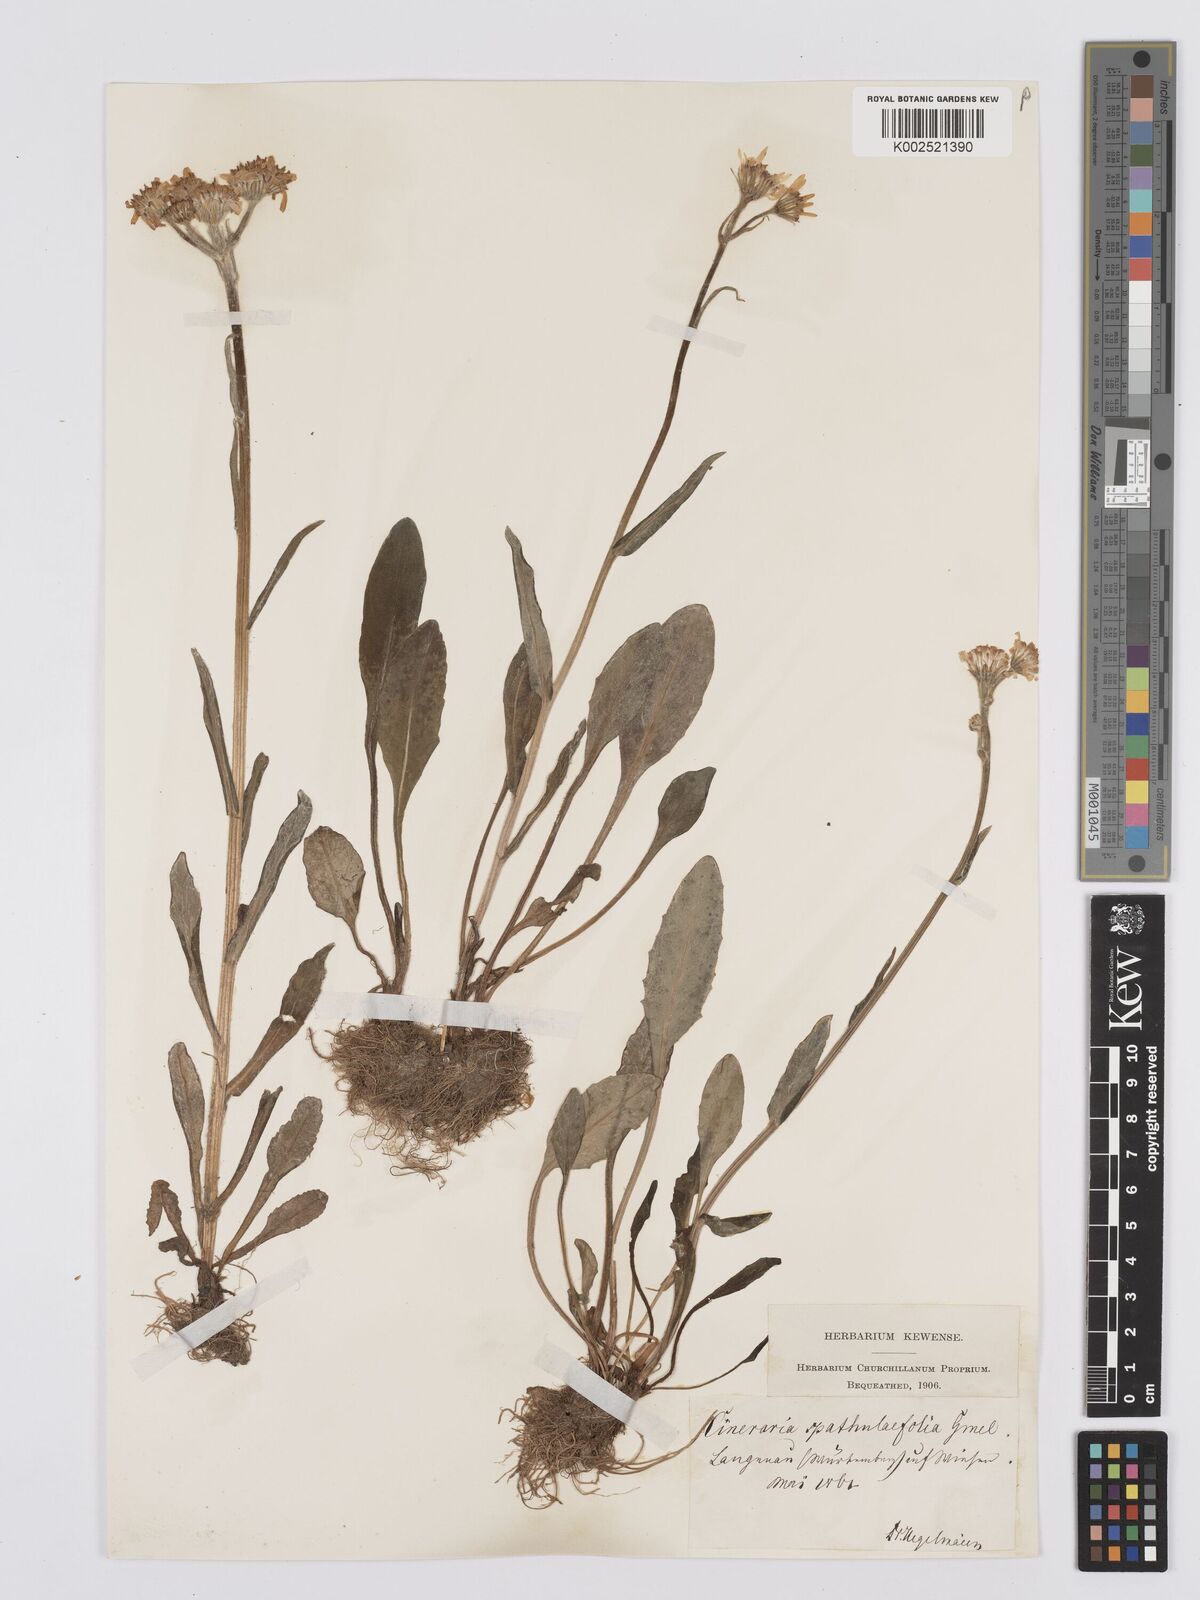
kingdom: Plantae
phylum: Tracheophyta
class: Magnoliopsida
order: Asterales
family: Asteraceae
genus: Tephroseris
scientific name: Tephroseris helenitis
